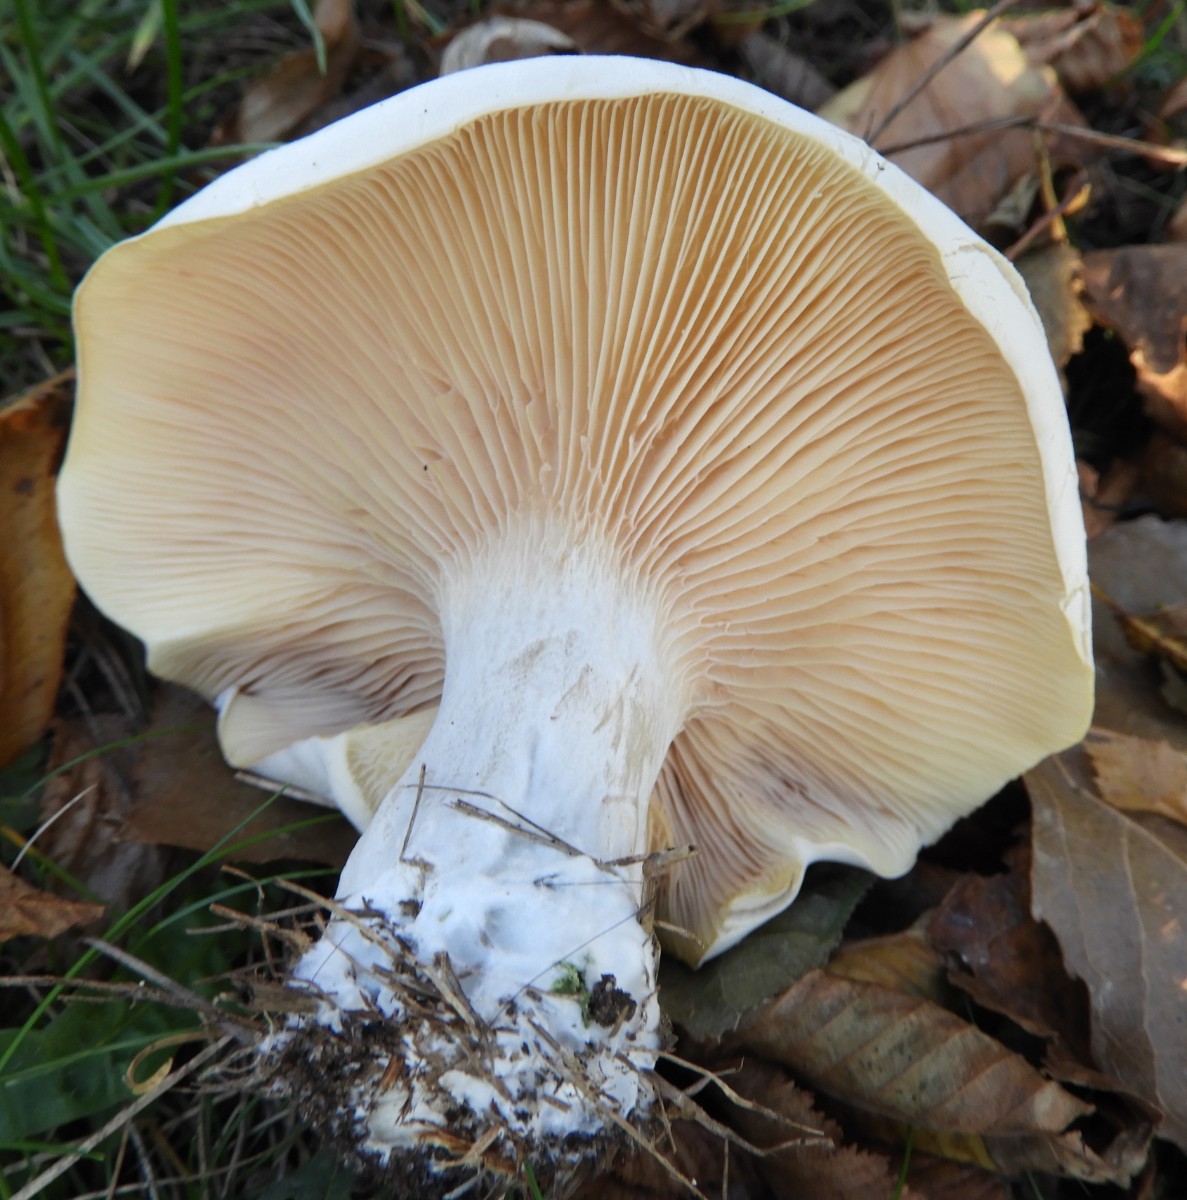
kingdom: Fungi
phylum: Basidiomycota
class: Agaricomycetes
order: Agaricales
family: Entolomataceae
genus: Clitopilus
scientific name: Clitopilus prunulus
